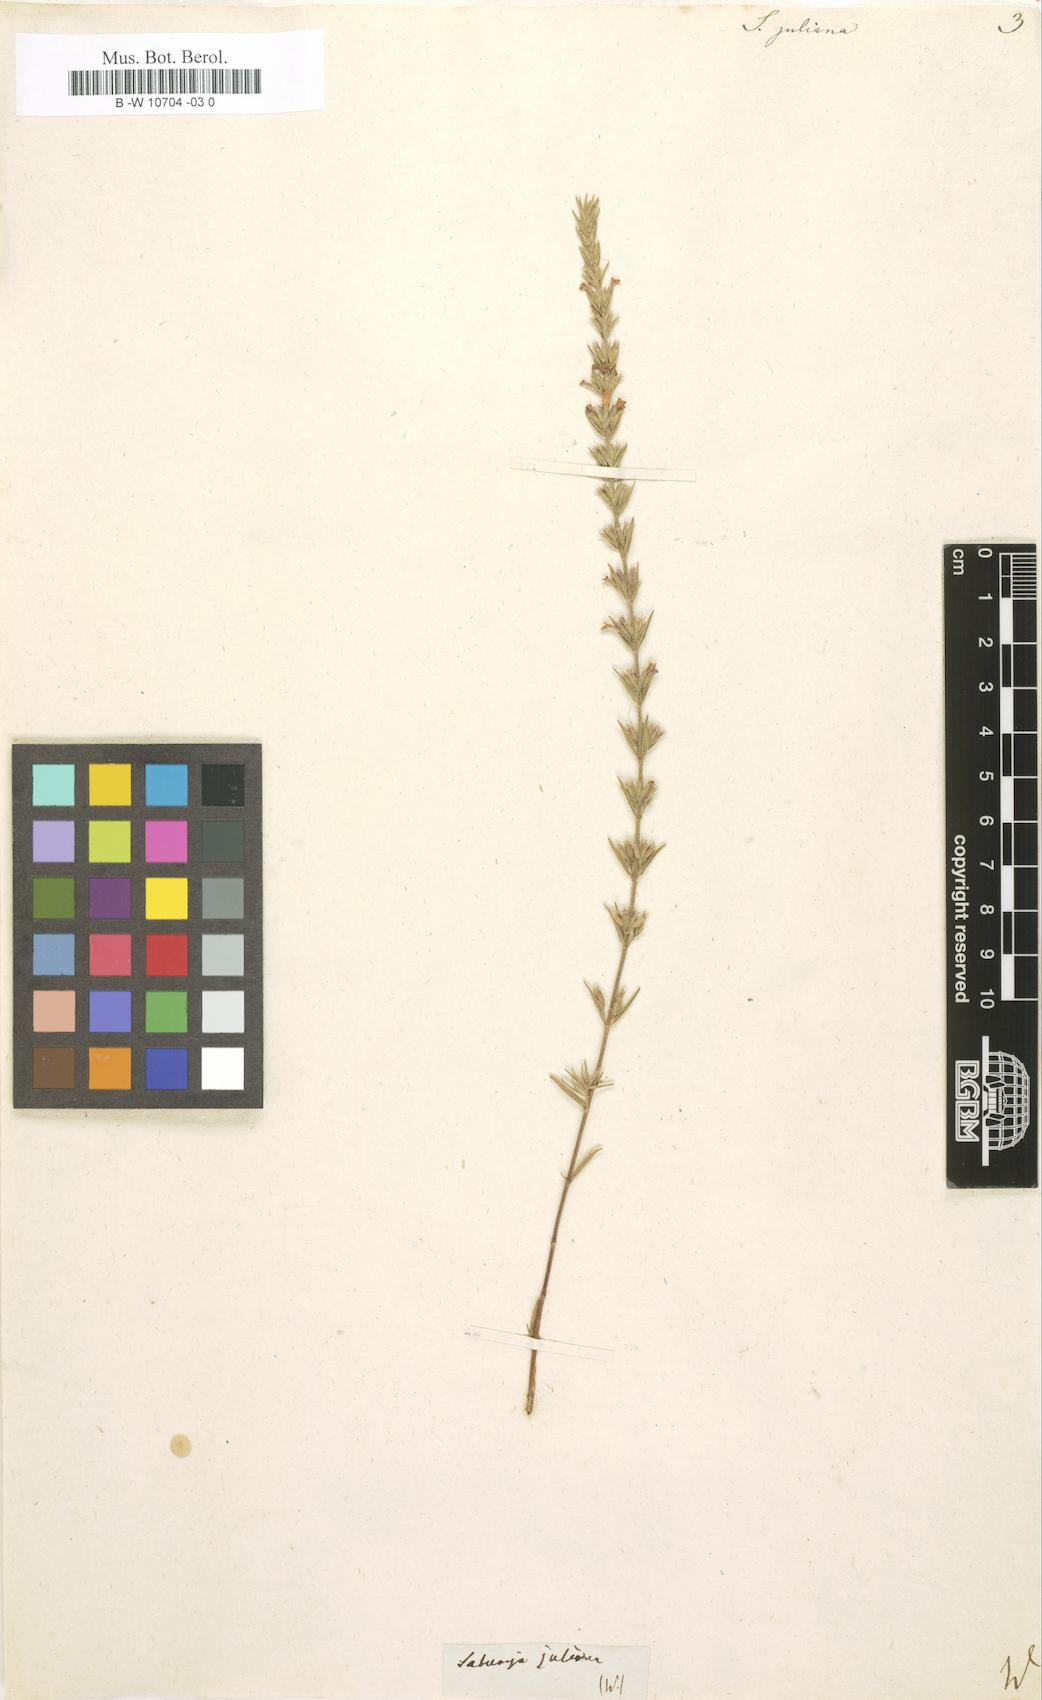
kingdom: Plantae
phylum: Tracheophyta
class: Magnoliopsida
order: Lamiales
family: Lamiaceae
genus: Micromeria
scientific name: Micromeria juliana
